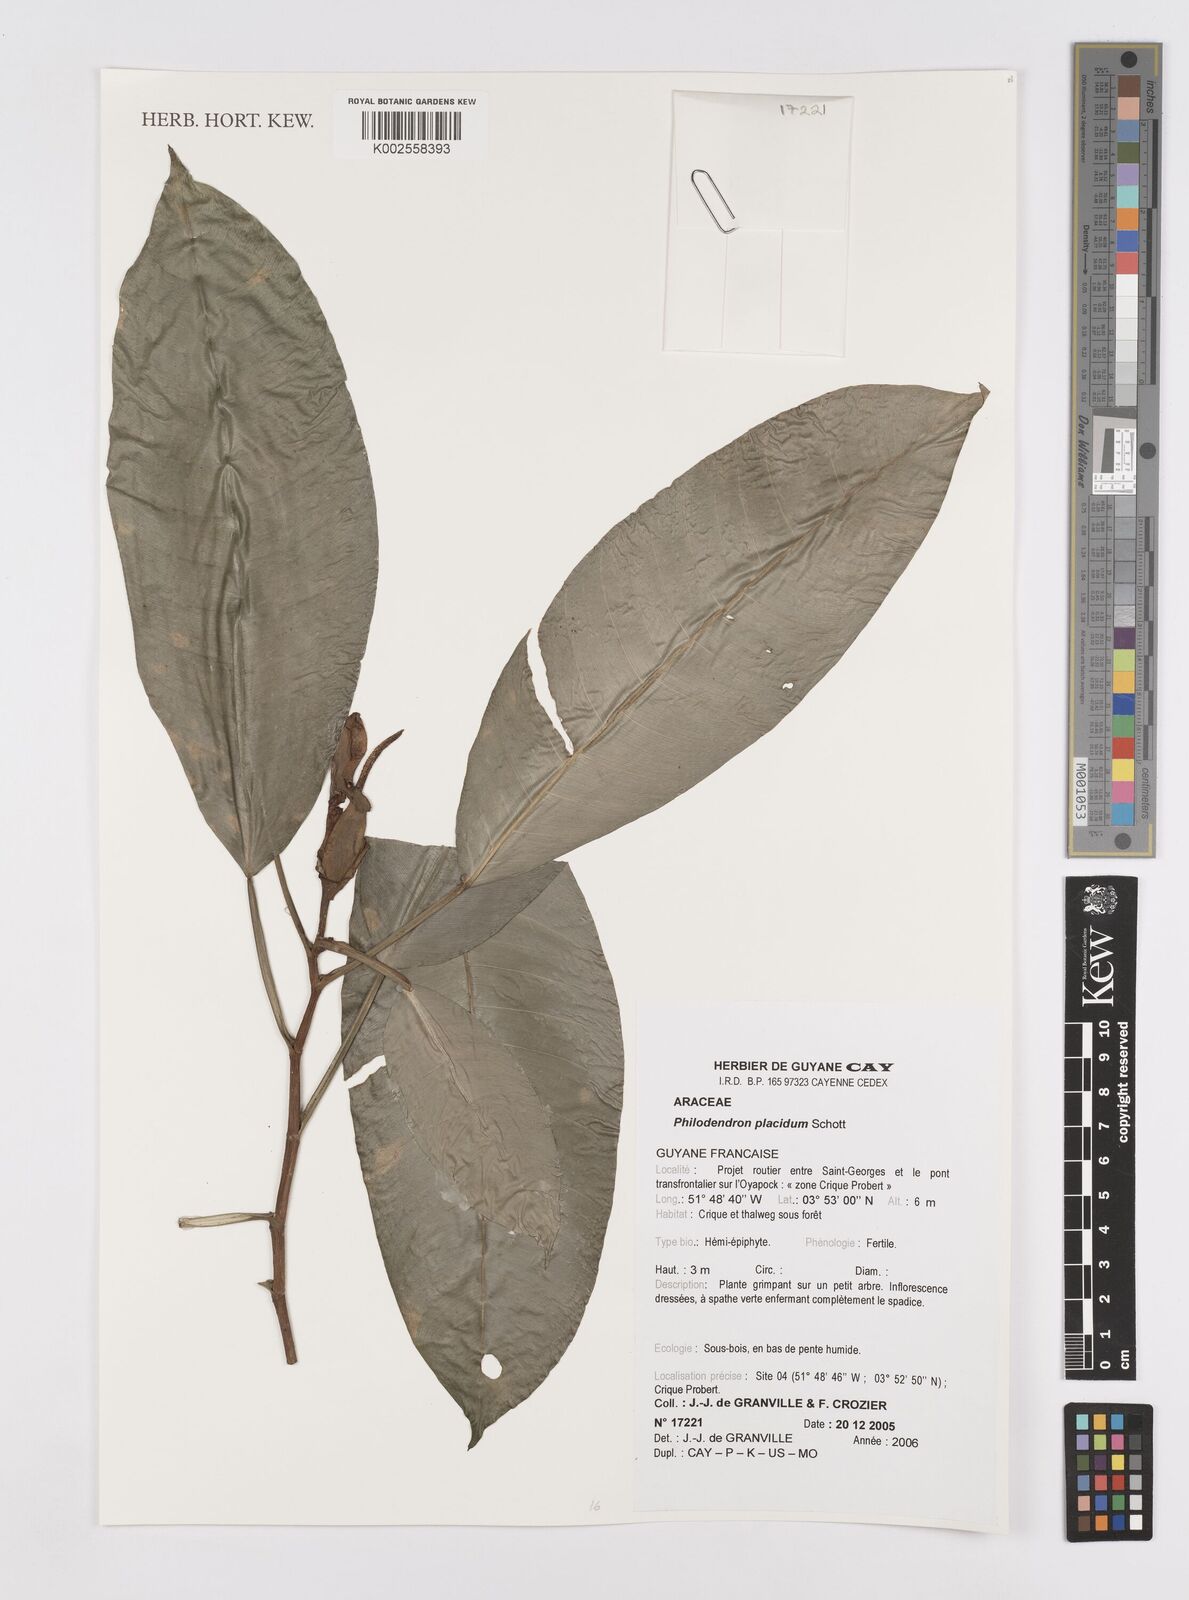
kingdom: Plantae
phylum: Tracheophyta
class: Liliopsida
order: Alismatales
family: Araceae
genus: Philodendron
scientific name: Philodendron placidum
